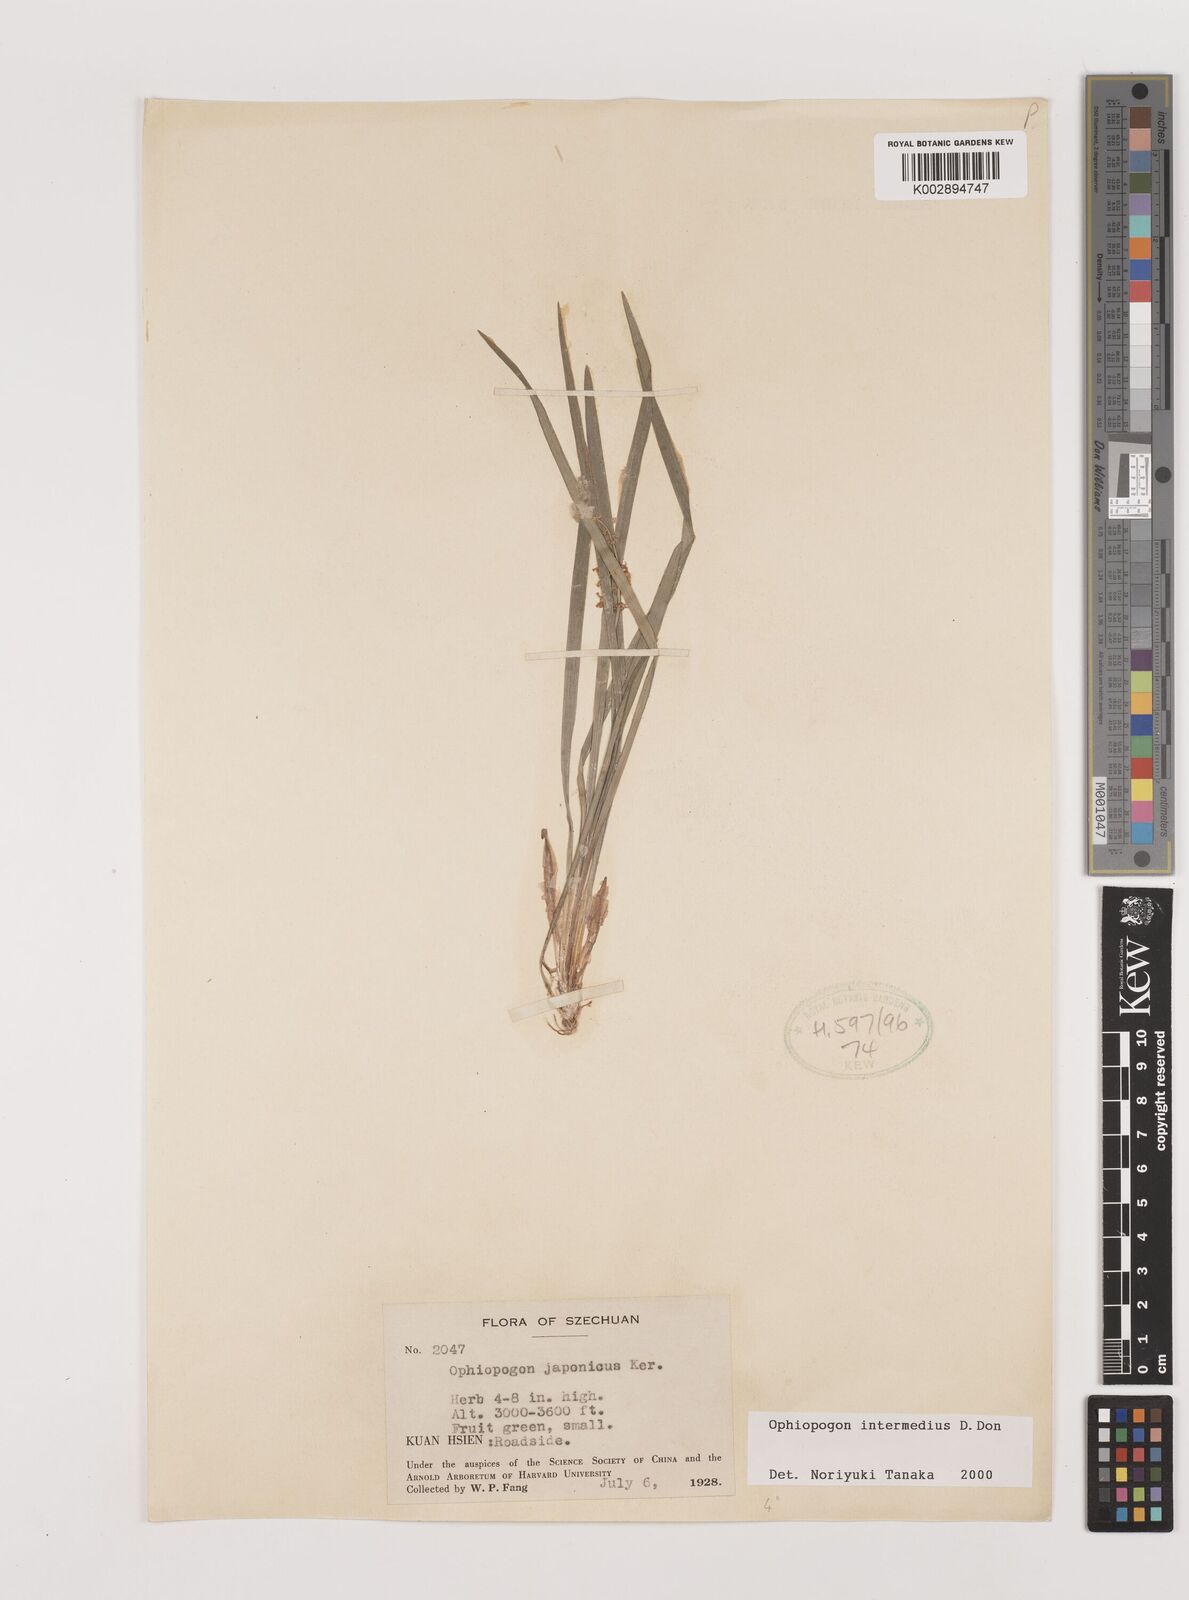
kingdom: Plantae
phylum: Tracheophyta
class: Liliopsida
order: Asparagales
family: Asparagaceae
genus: Ophiopogon
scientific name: Ophiopogon intermedius
